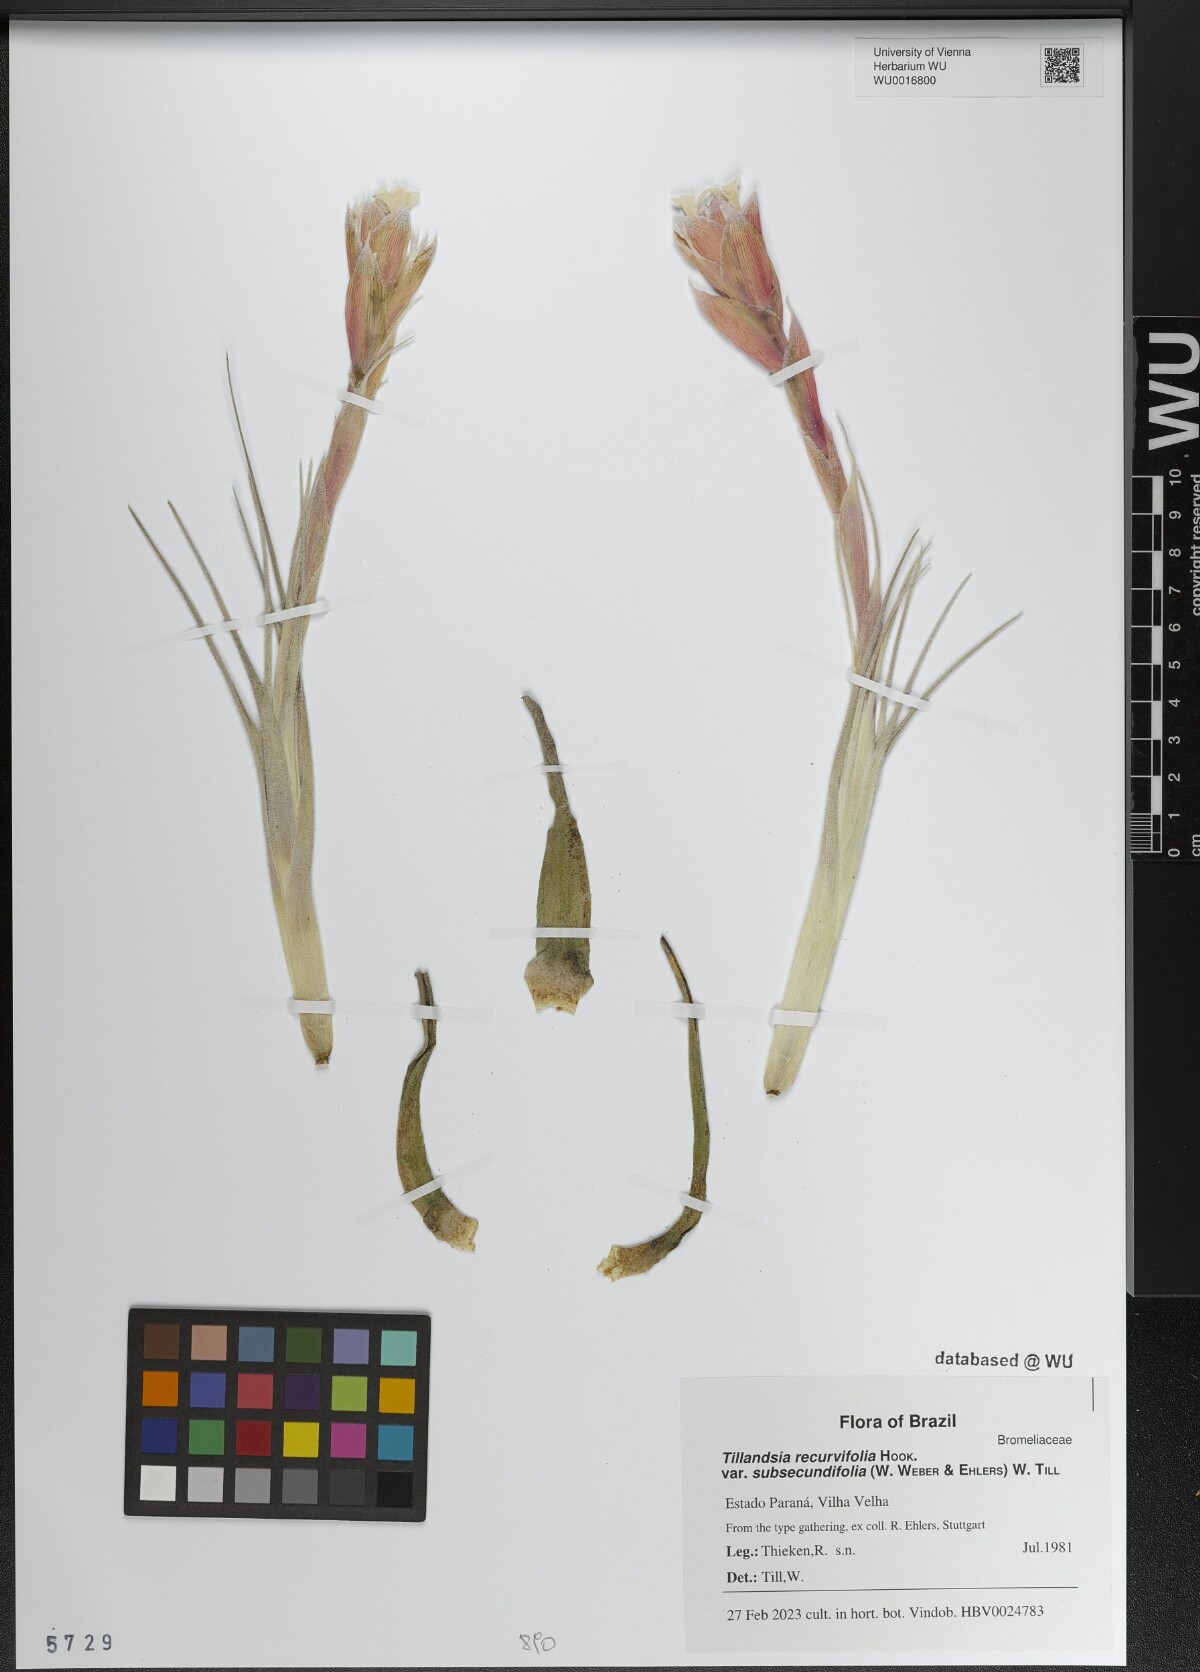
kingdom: Plantae
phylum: Tracheophyta
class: Liliopsida
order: Poales
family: Bromeliaceae
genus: Tillandsia
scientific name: Tillandsia leonamiana
